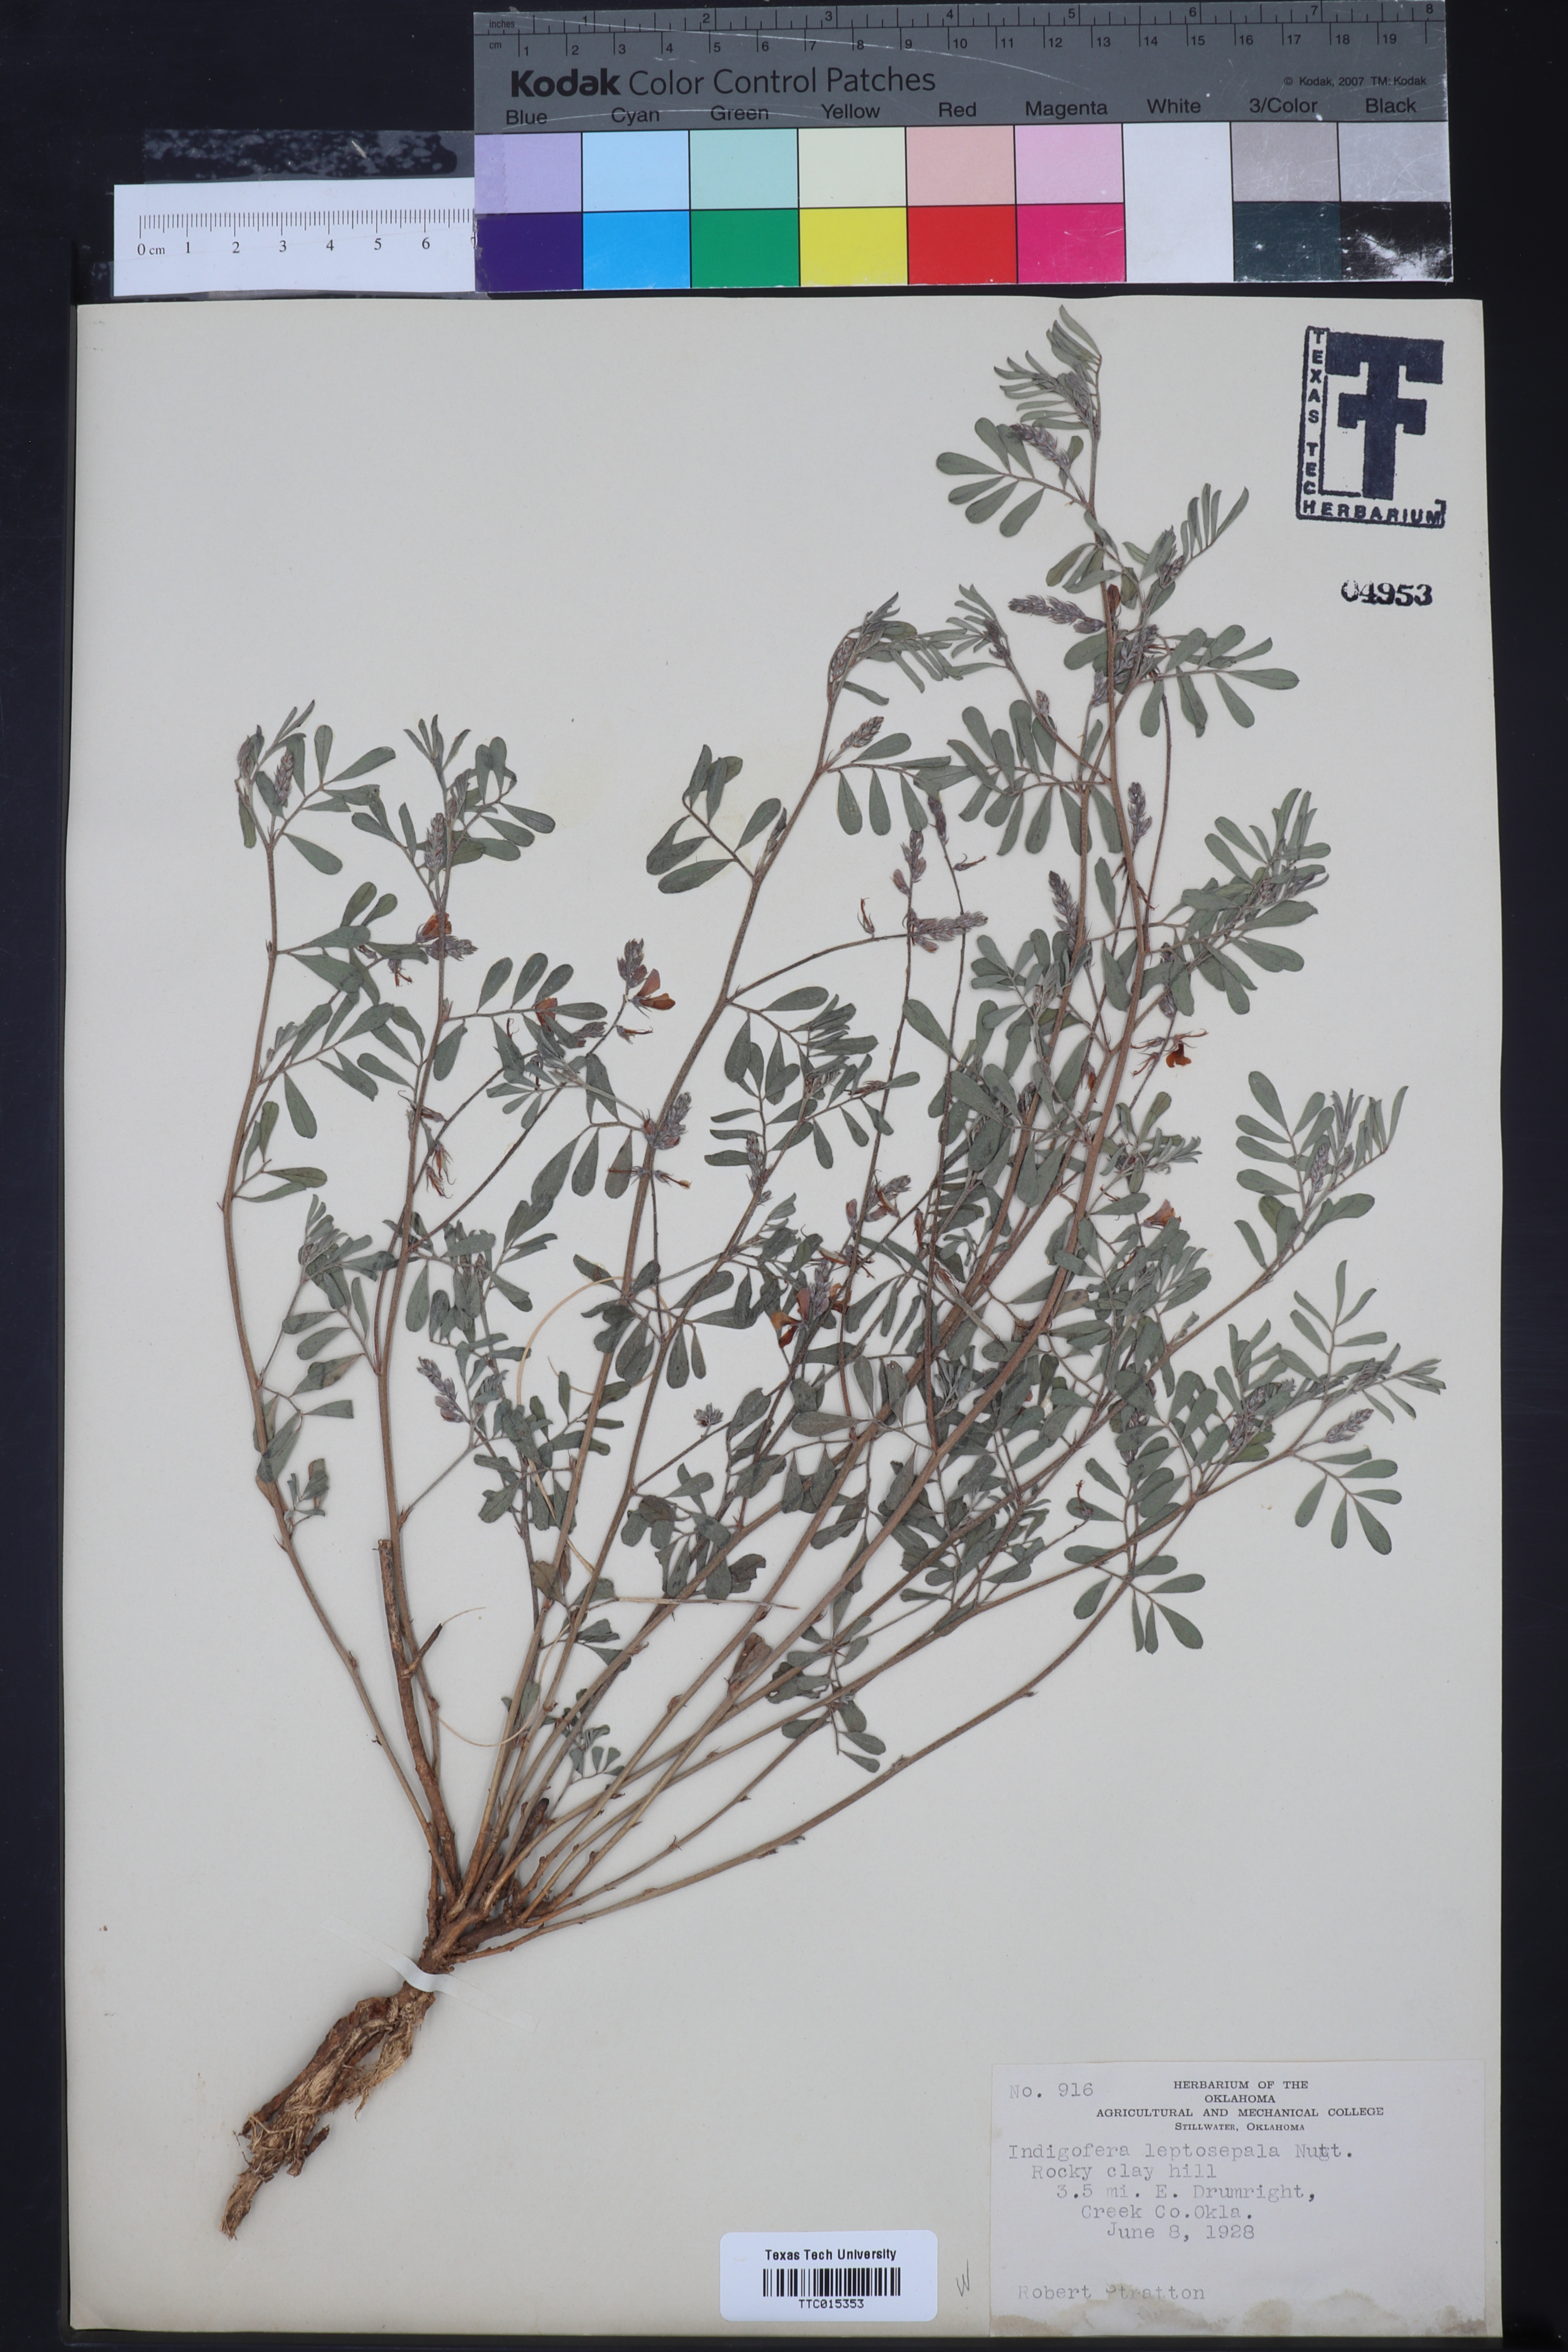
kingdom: Plantae
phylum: Tracheophyta
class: Magnoliopsida
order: Fabales
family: Fabaceae
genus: Indigofera
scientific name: Indigofera argutidens
